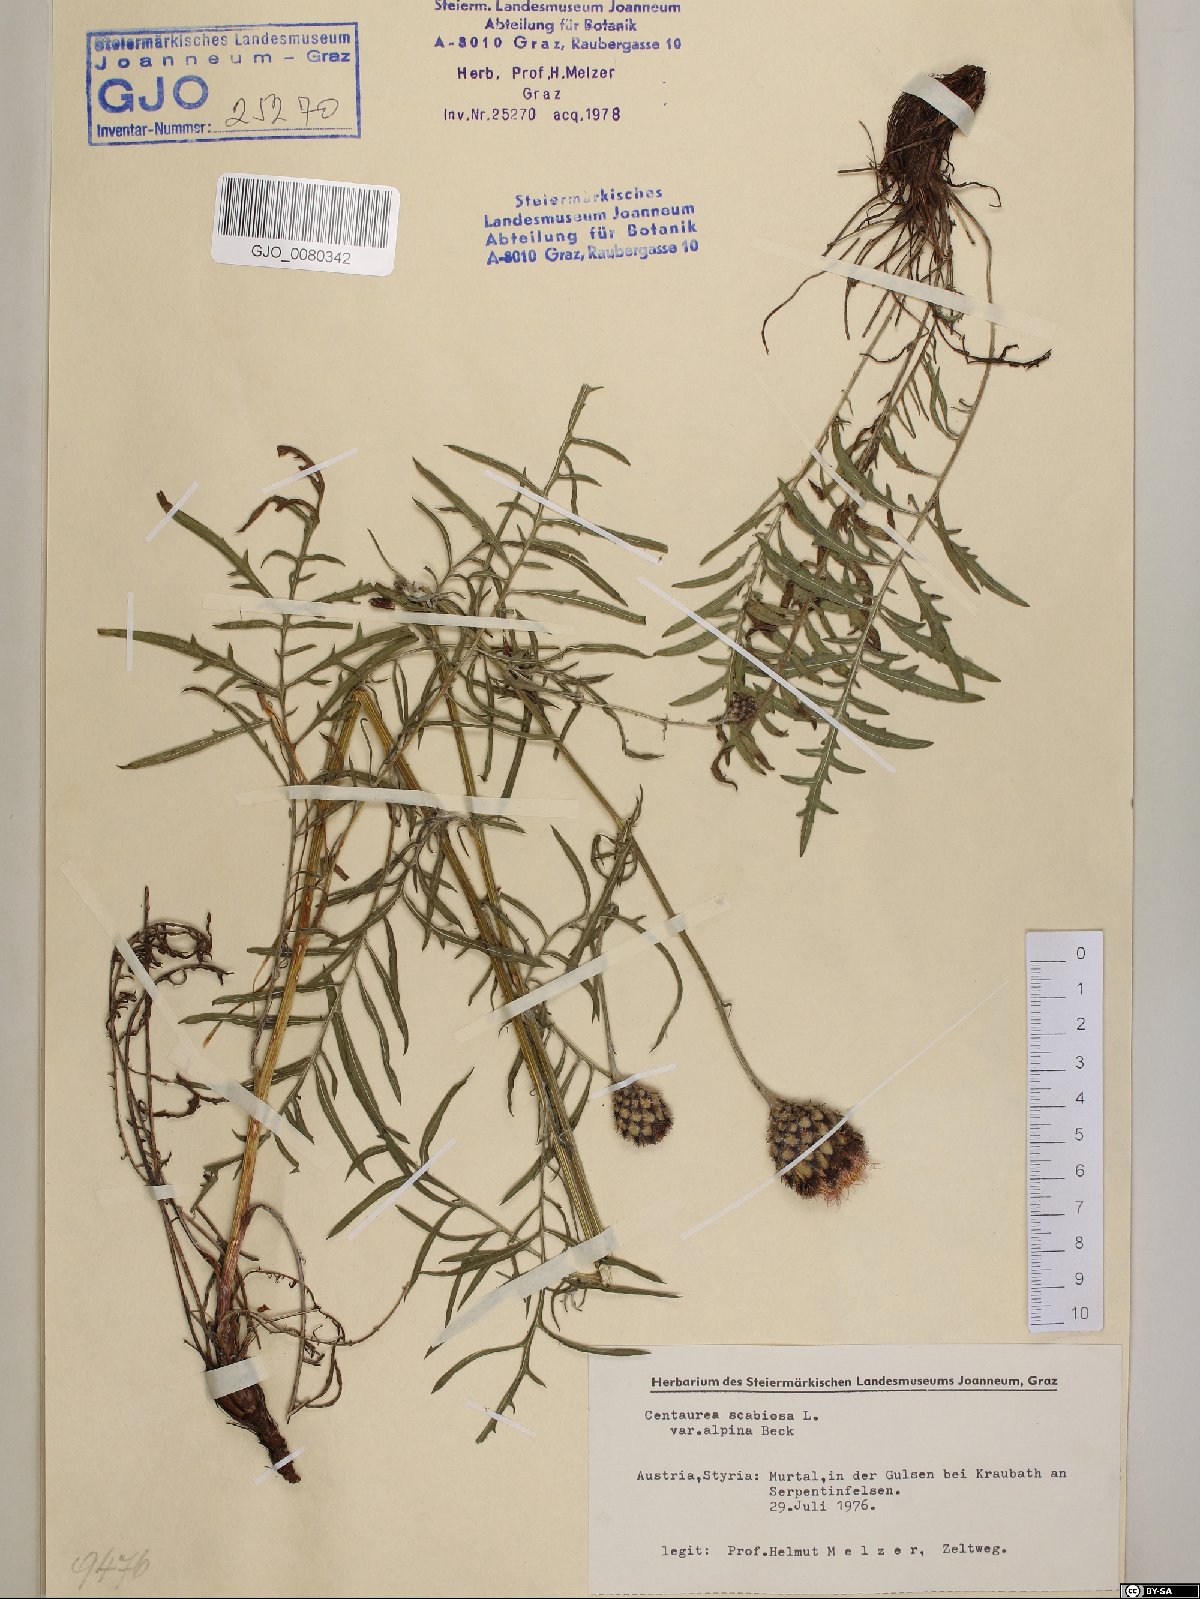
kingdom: Plantae
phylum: Tracheophyta
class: Magnoliopsida
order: Asterales
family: Asteraceae
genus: Centaurea
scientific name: Centaurea scabiosa
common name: Greater knapweed
